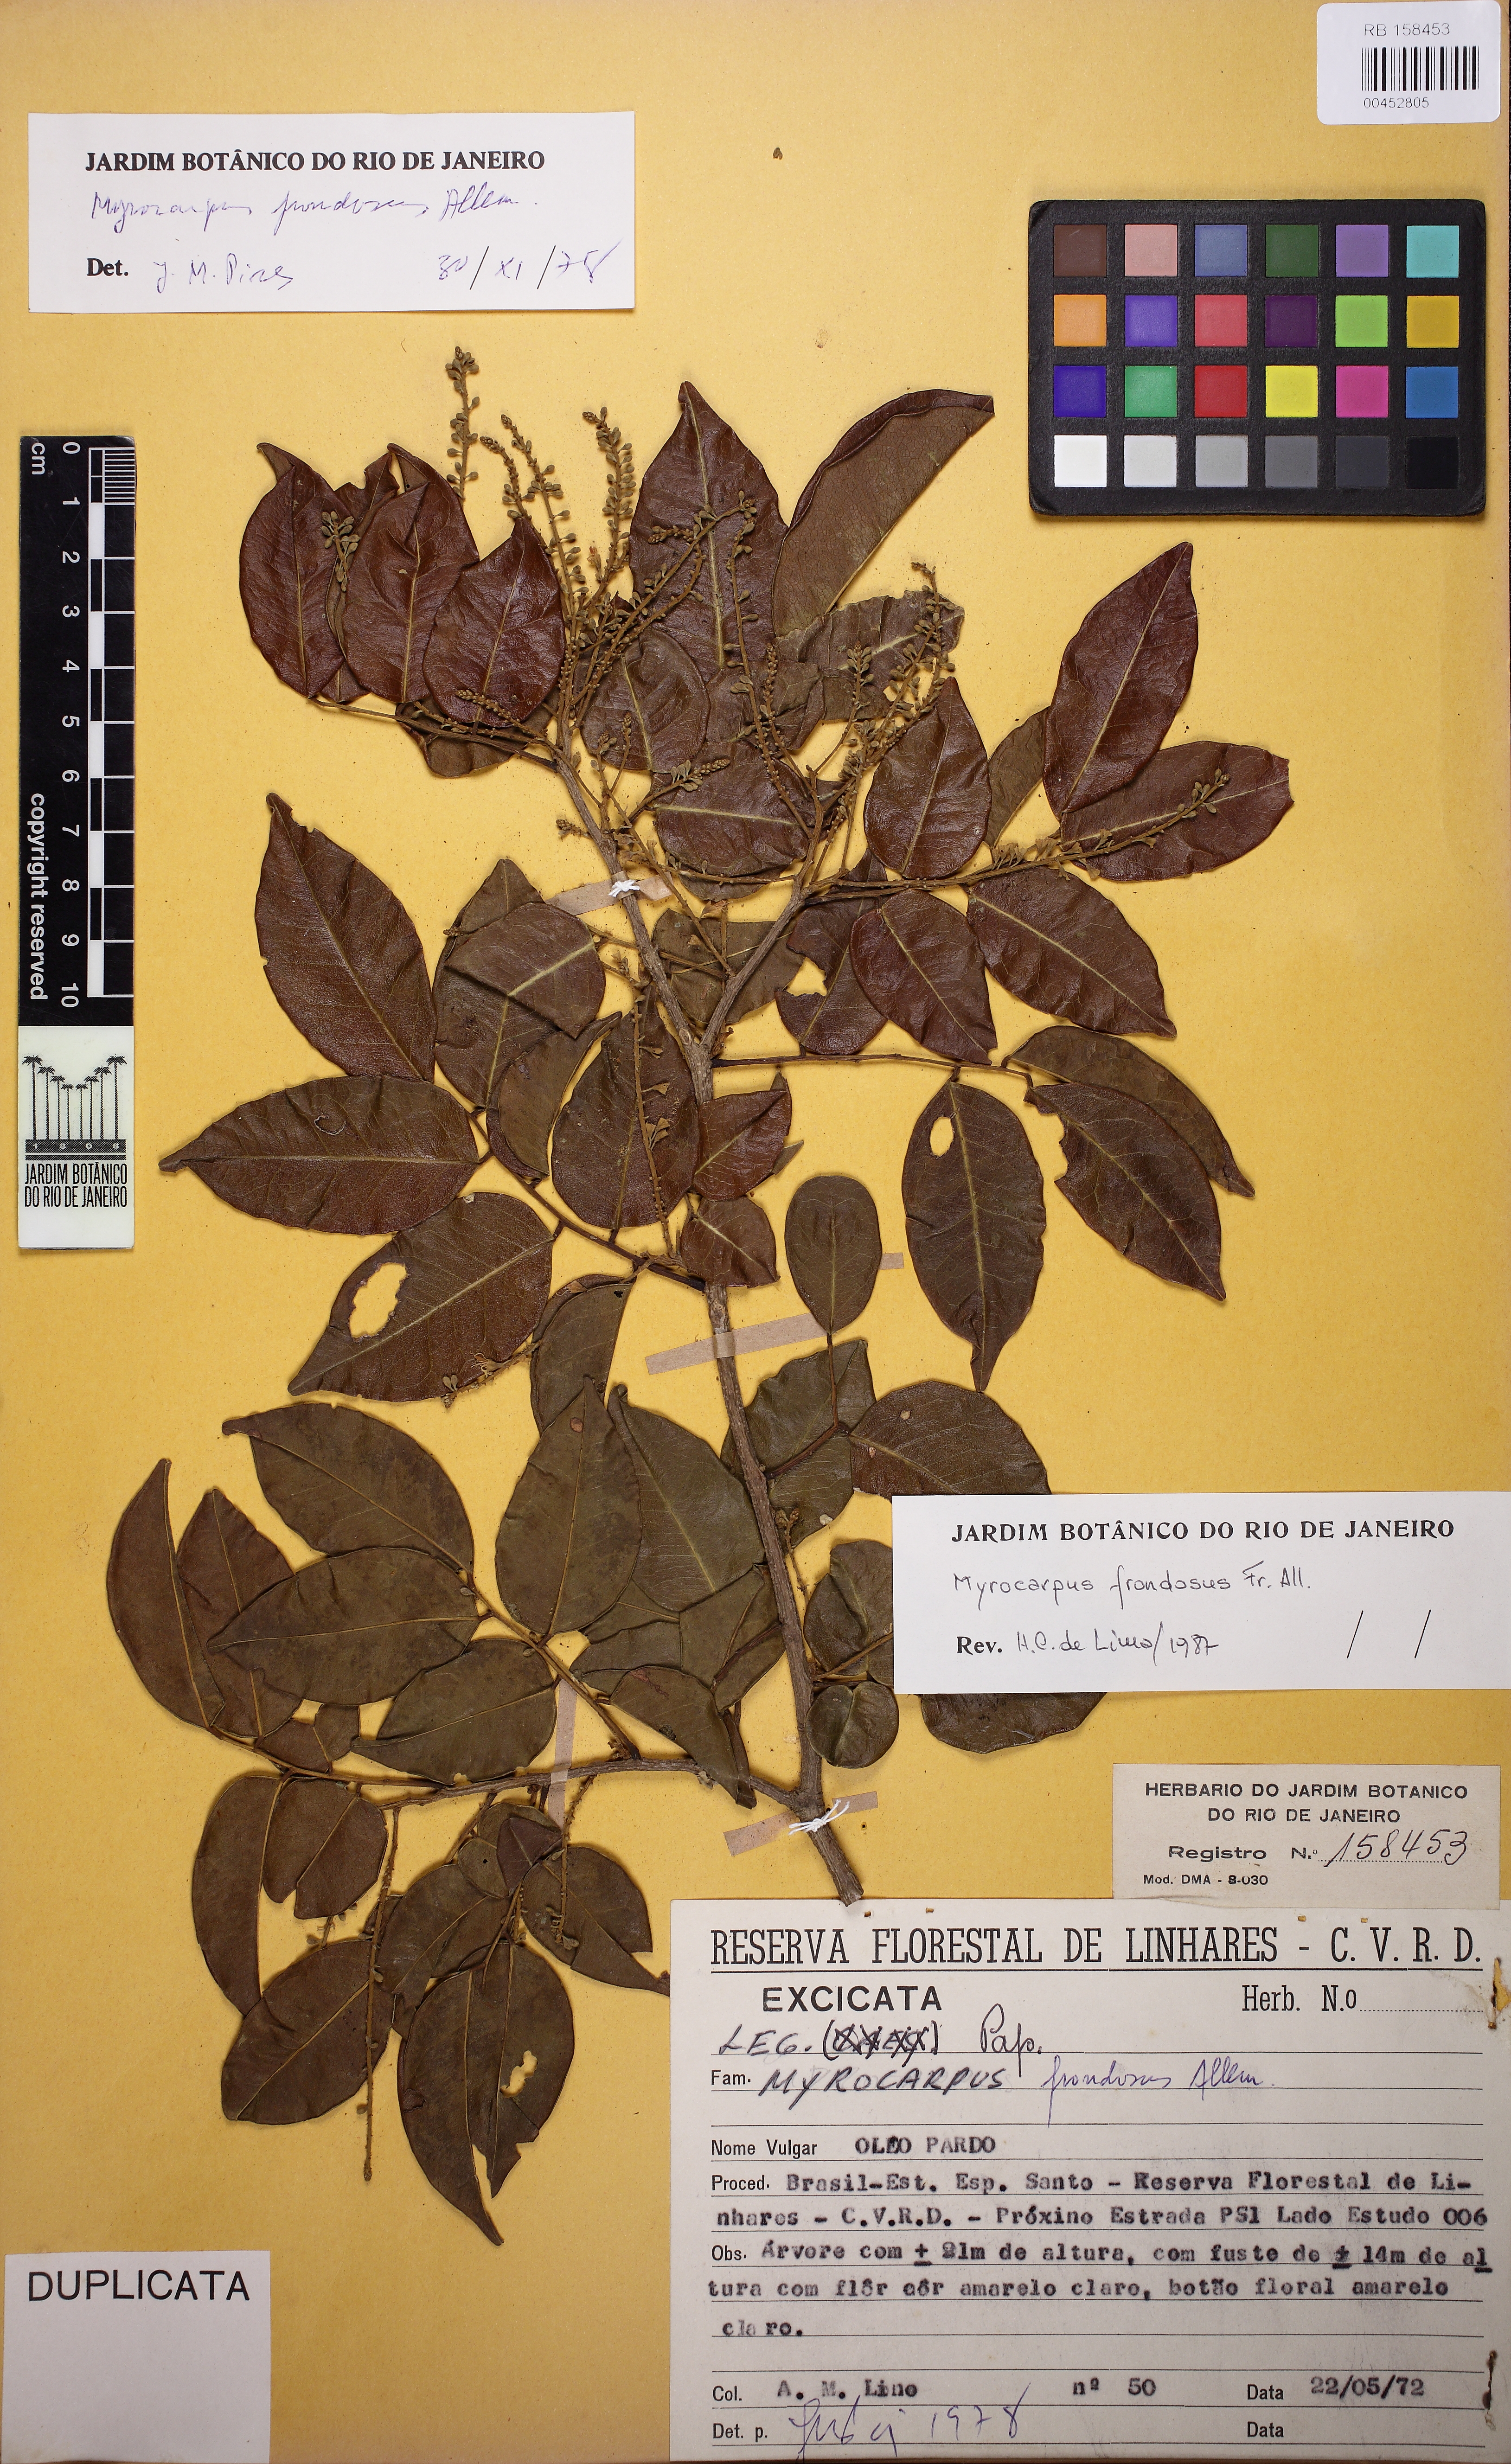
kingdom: Plantae
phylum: Tracheophyta
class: Magnoliopsida
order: Fabales
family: Fabaceae
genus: Myrocarpus
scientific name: Myrocarpus frondosus
